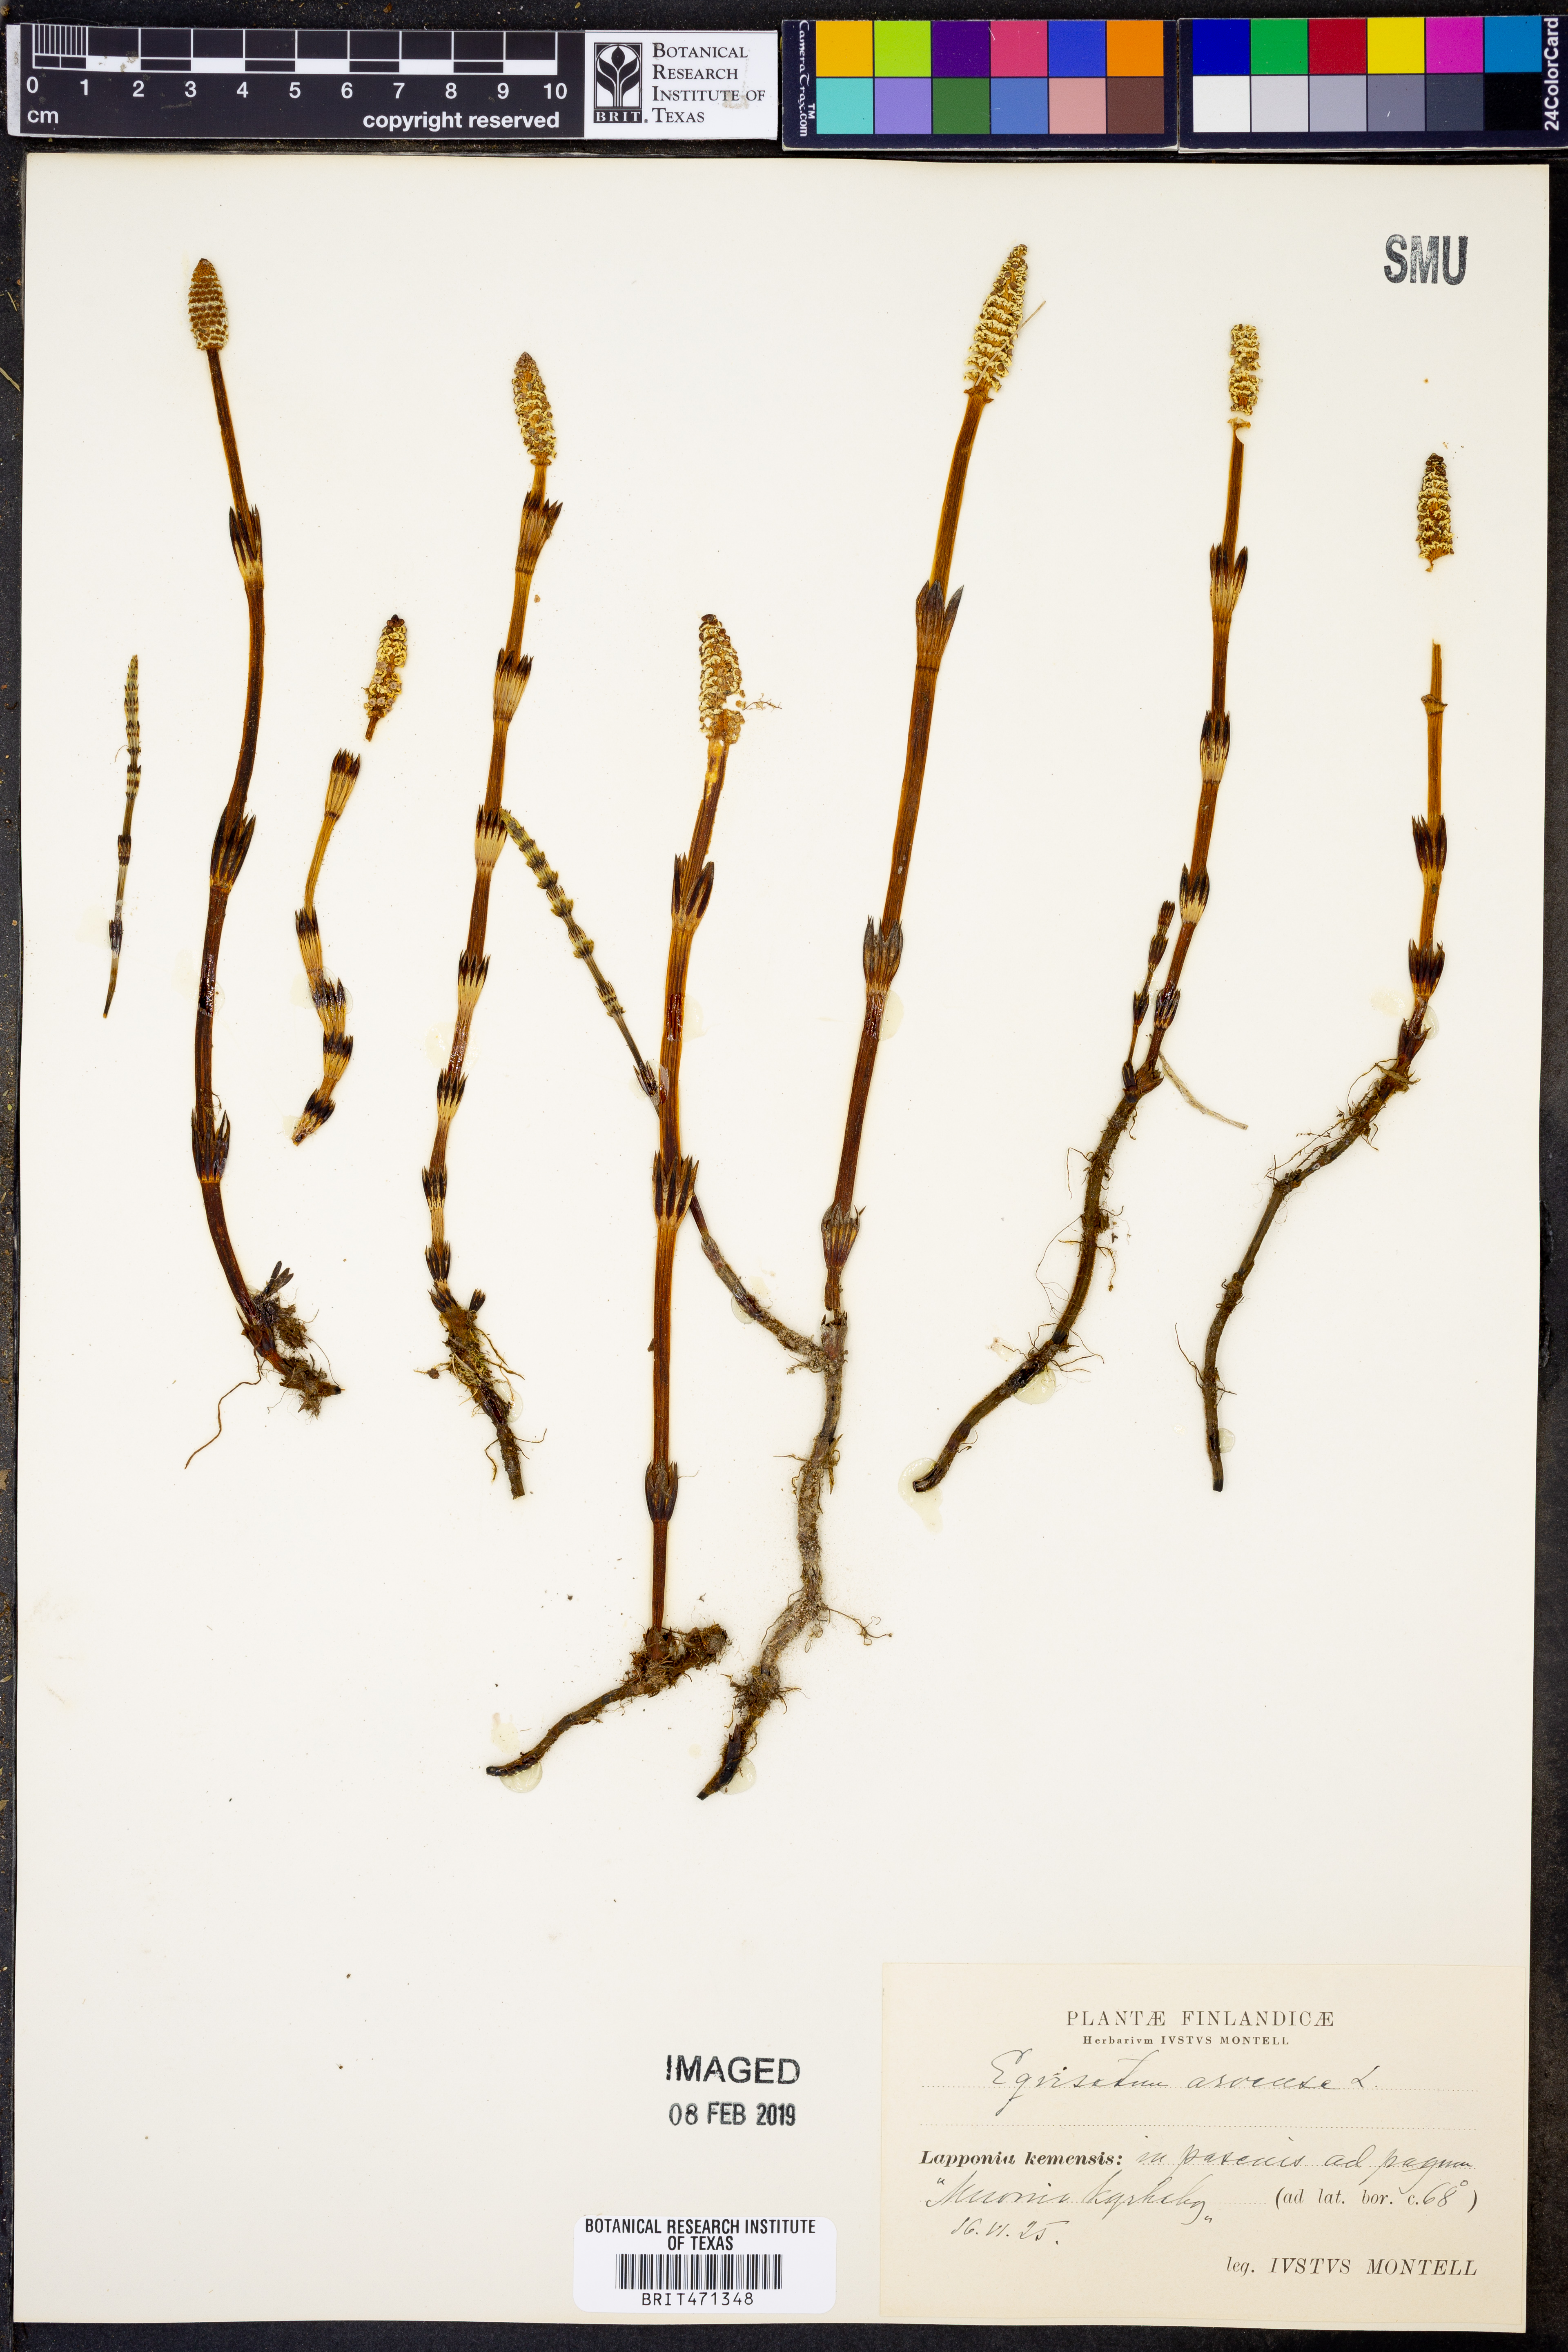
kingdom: Plantae
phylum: Tracheophyta
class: Polypodiopsida
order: Equisetales
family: Equisetaceae
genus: Equisetum
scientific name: Equisetum arvense
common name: Field horsetail
